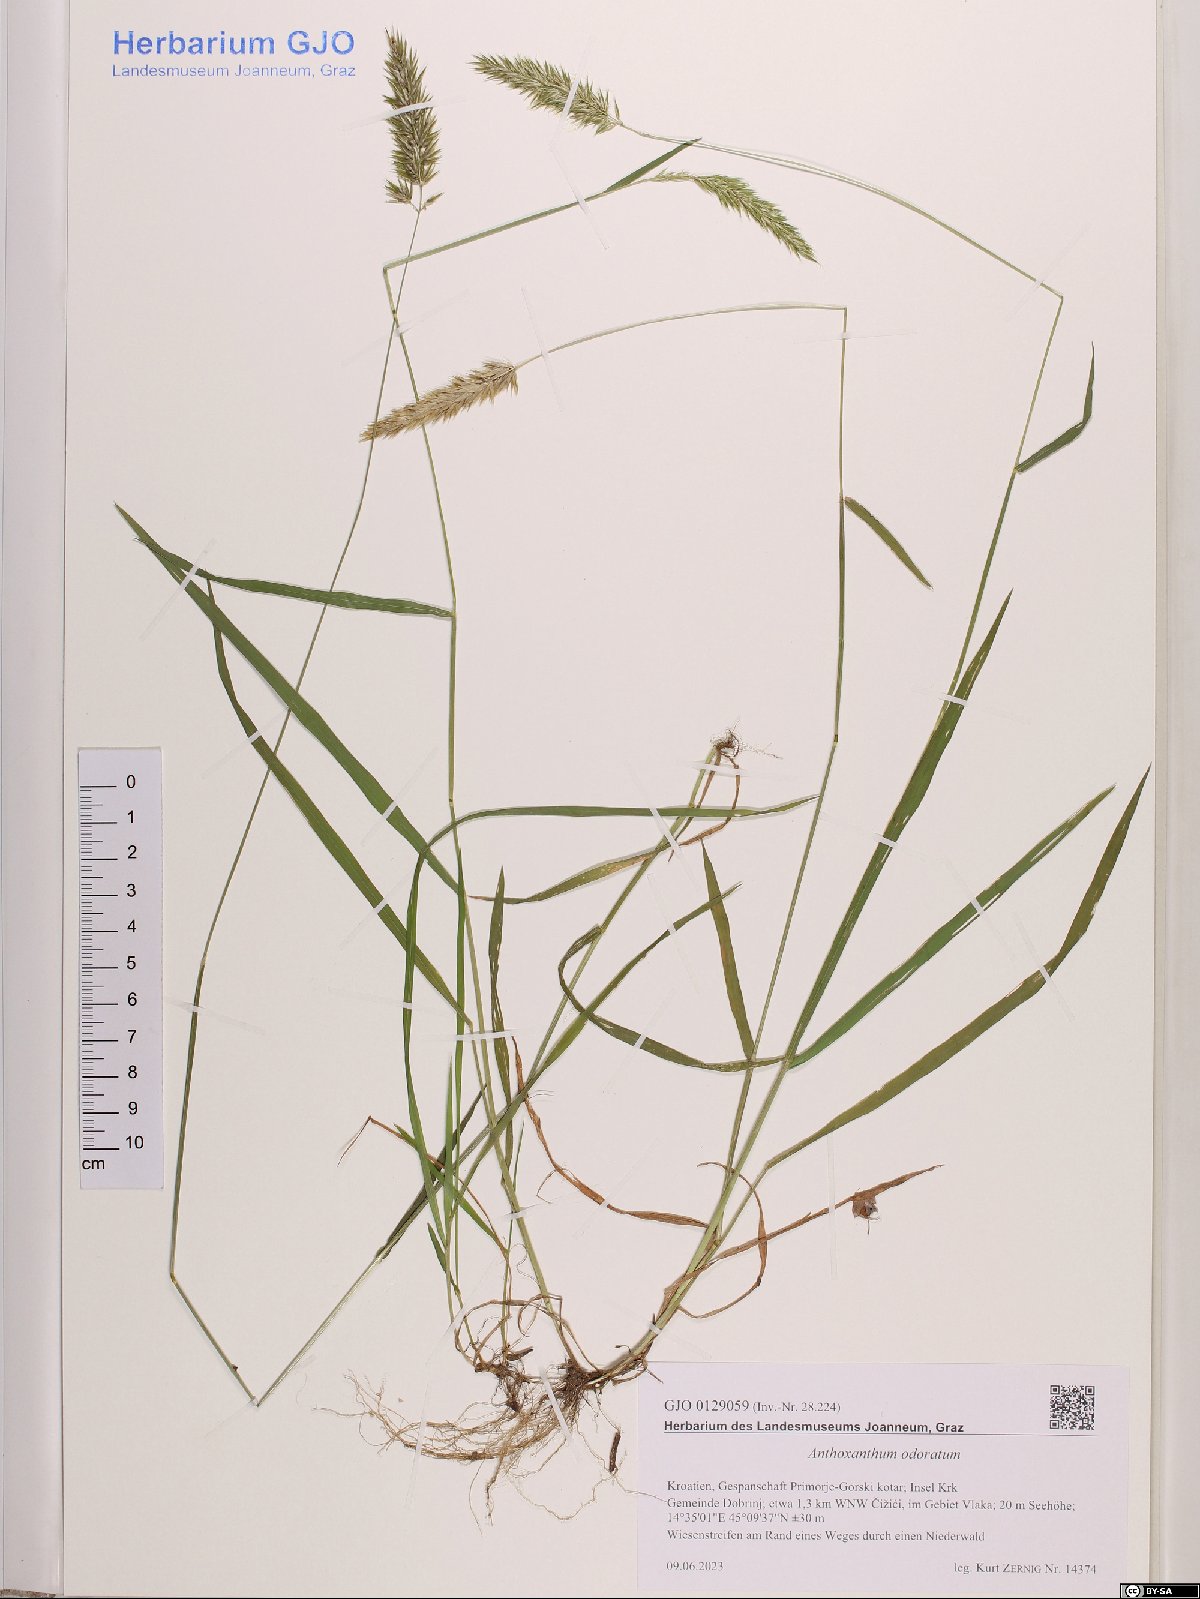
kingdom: Plantae
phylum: Tracheophyta
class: Liliopsida
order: Poales
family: Poaceae
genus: Anthoxanthum
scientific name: Anthoxanthum odoratum
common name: Sweet vernalgrass
